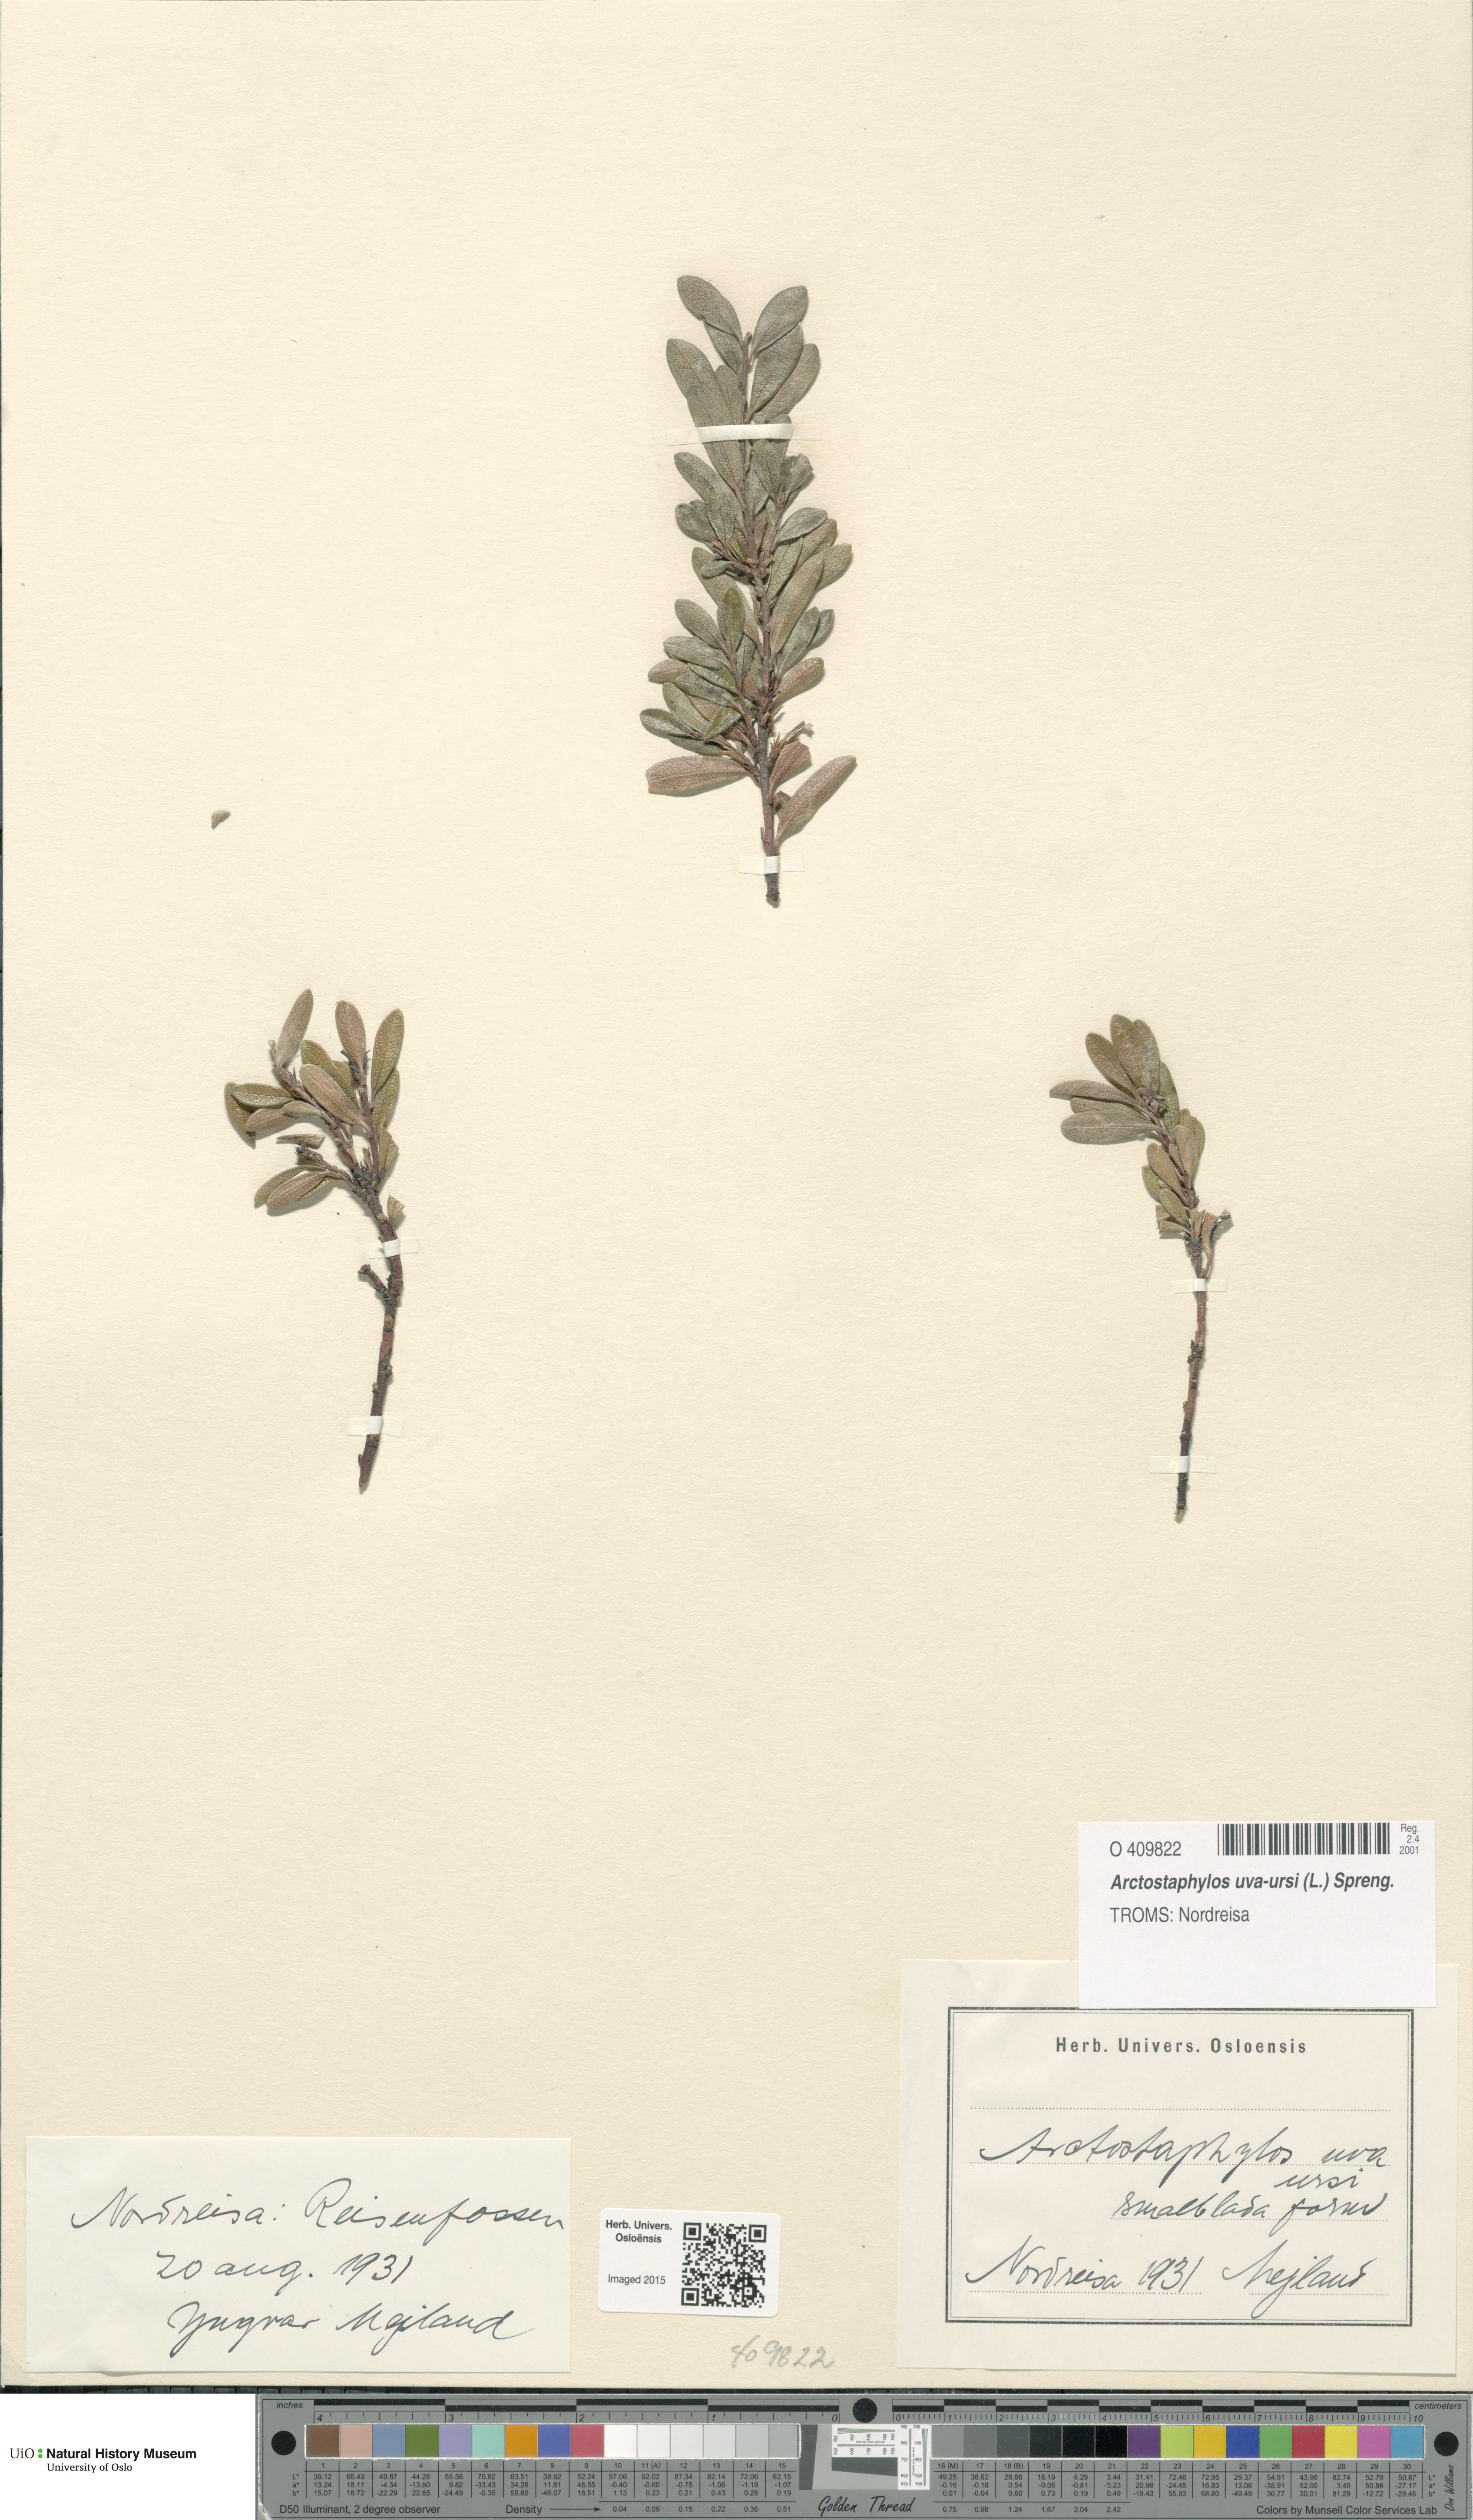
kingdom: Plantae
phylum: Tracheophyta
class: Magnoliopsida
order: Ericales
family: Ericaceae
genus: Arctostaphylos
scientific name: Arctostaphylos uva-ursi
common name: Bearberry
